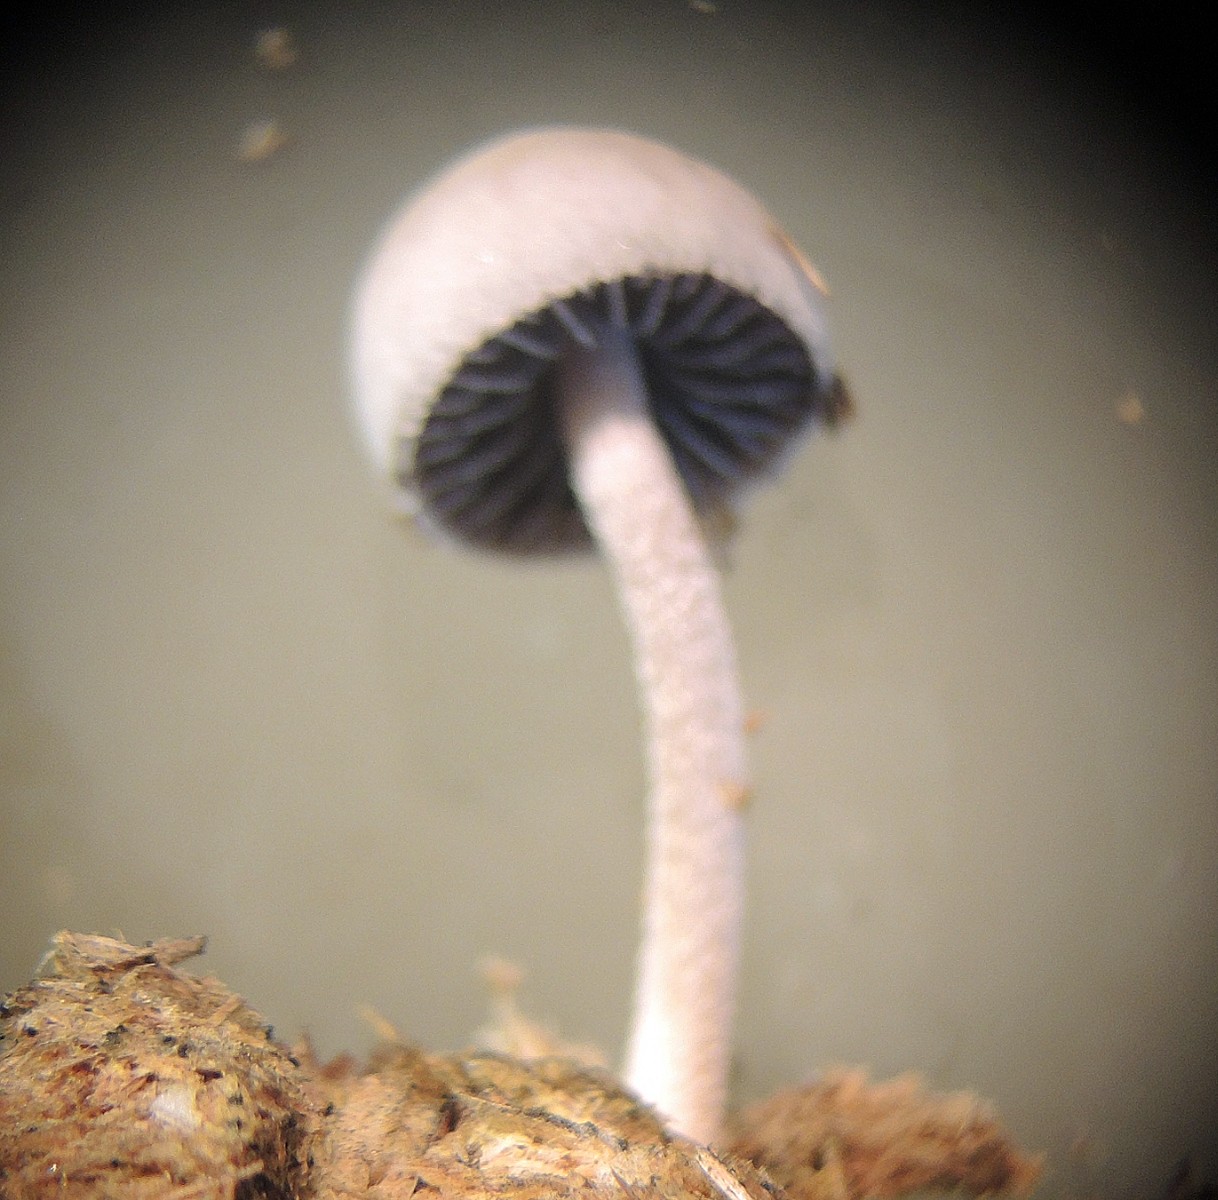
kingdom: Fungi
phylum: Basidiomycota
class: Agaricomycetes
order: Agaricales
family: Bolbitiaceae
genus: Panaeolus
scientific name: Panaeolus subfirmus
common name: fælled-glanshat
